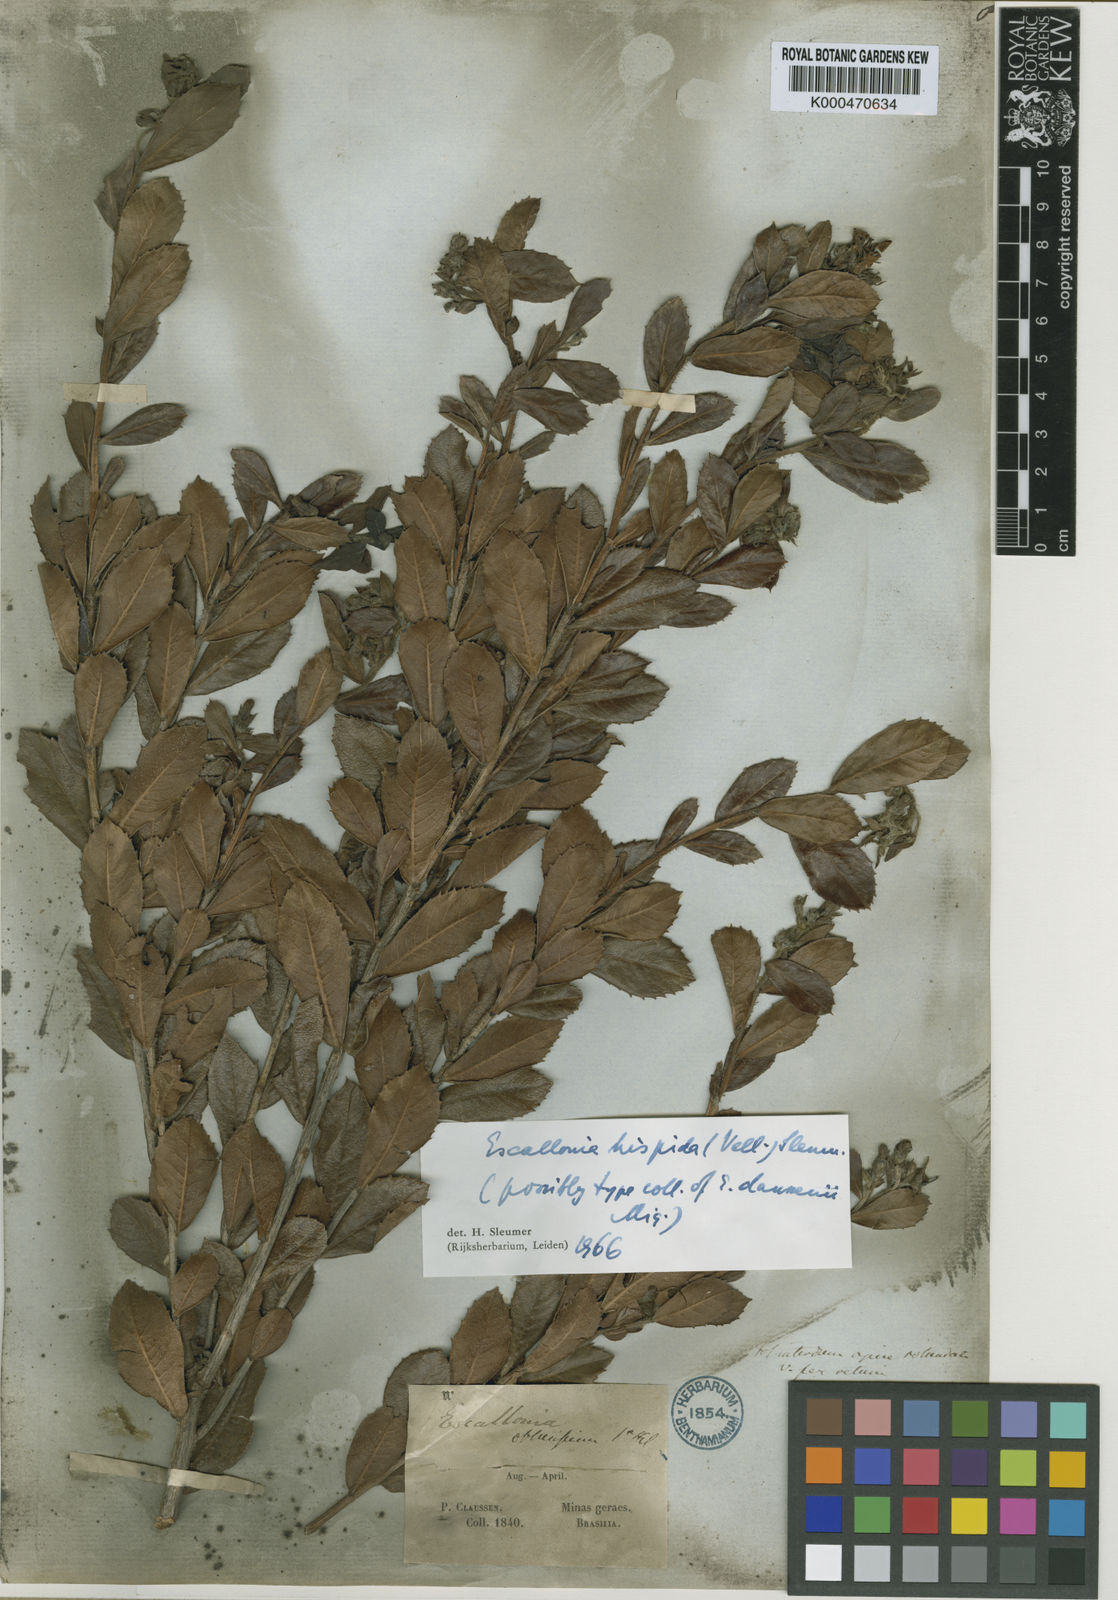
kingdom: Plantae
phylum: Tracheophyta
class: Magnoliopsida
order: Escalloniales
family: Escalloniaceae
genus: Escallonia
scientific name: Escallonia hispida
